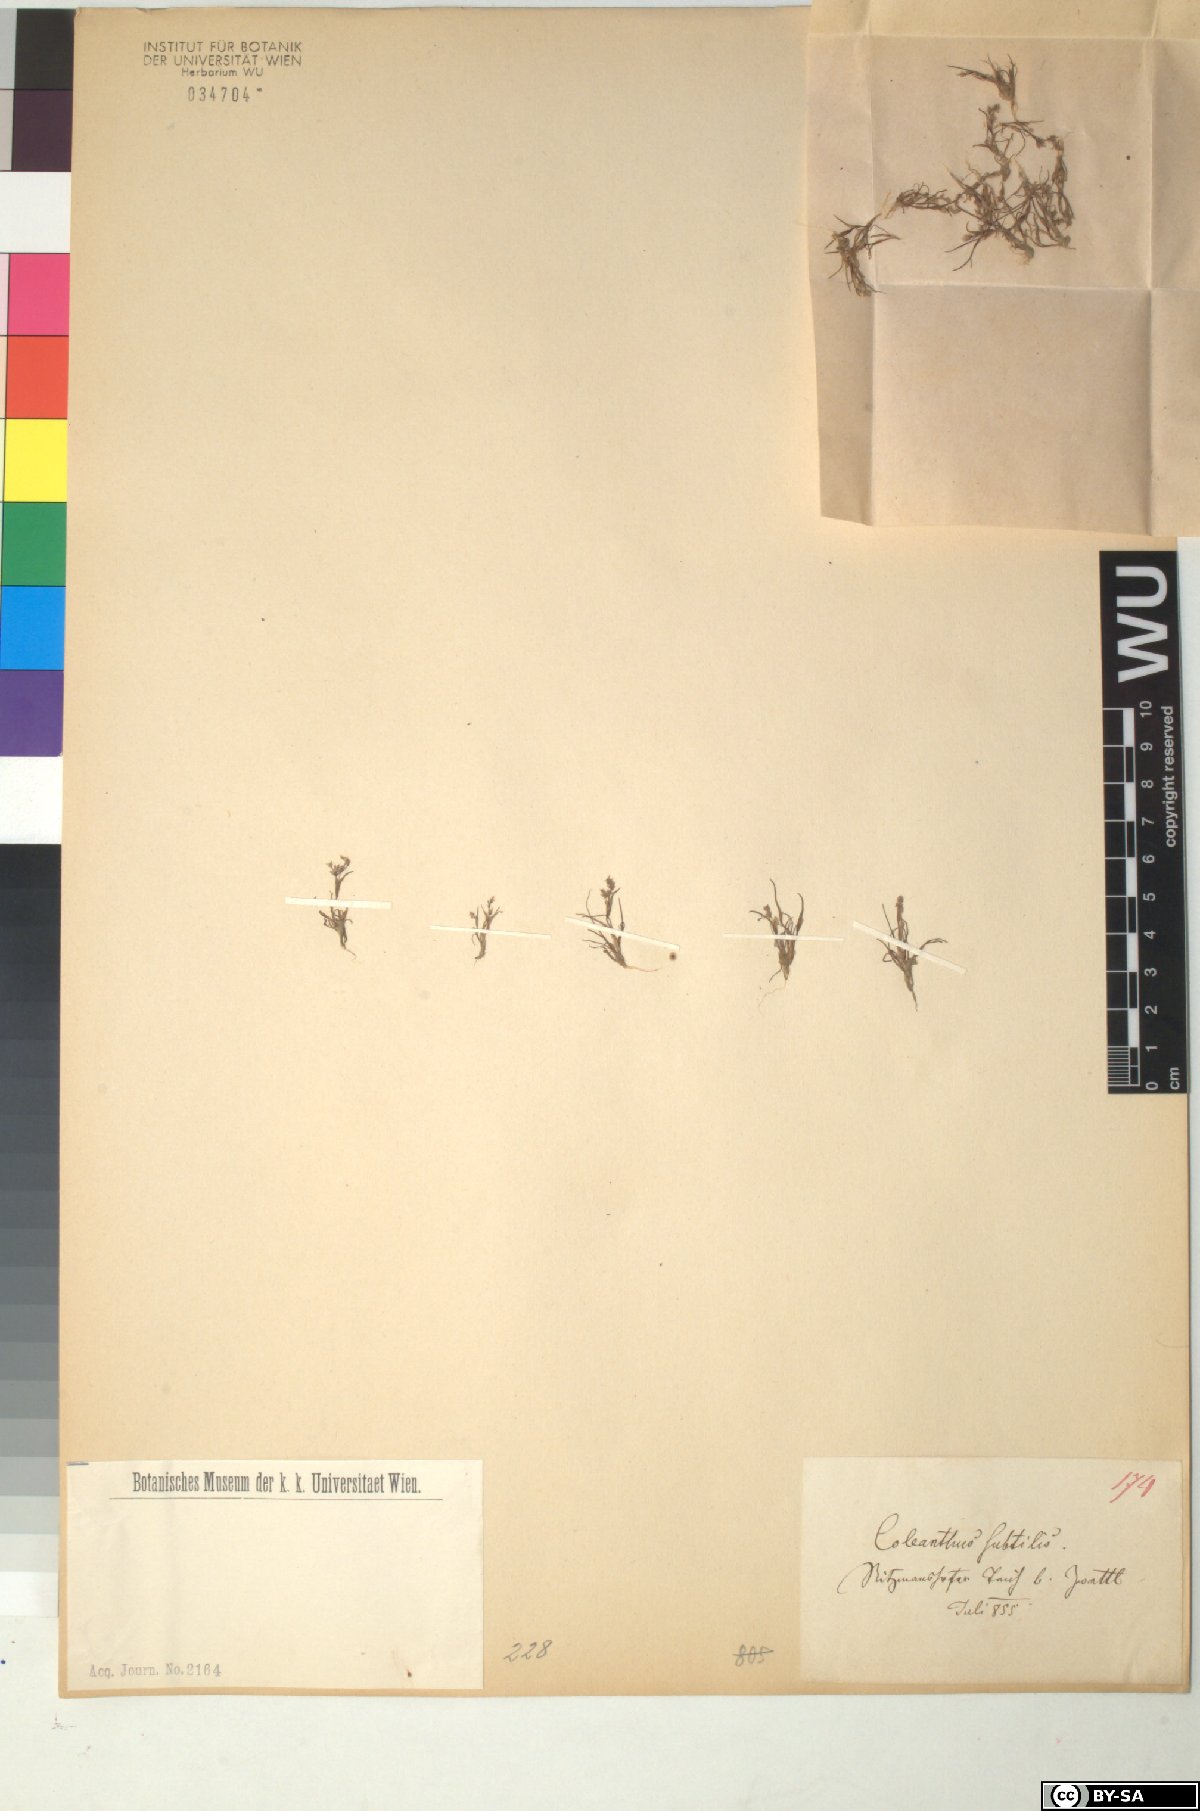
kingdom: Plantae
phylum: Tracheophyta
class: Liliopsida
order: Poales
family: Poaceae
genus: Coleanthus
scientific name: Coleanthus subtilis
